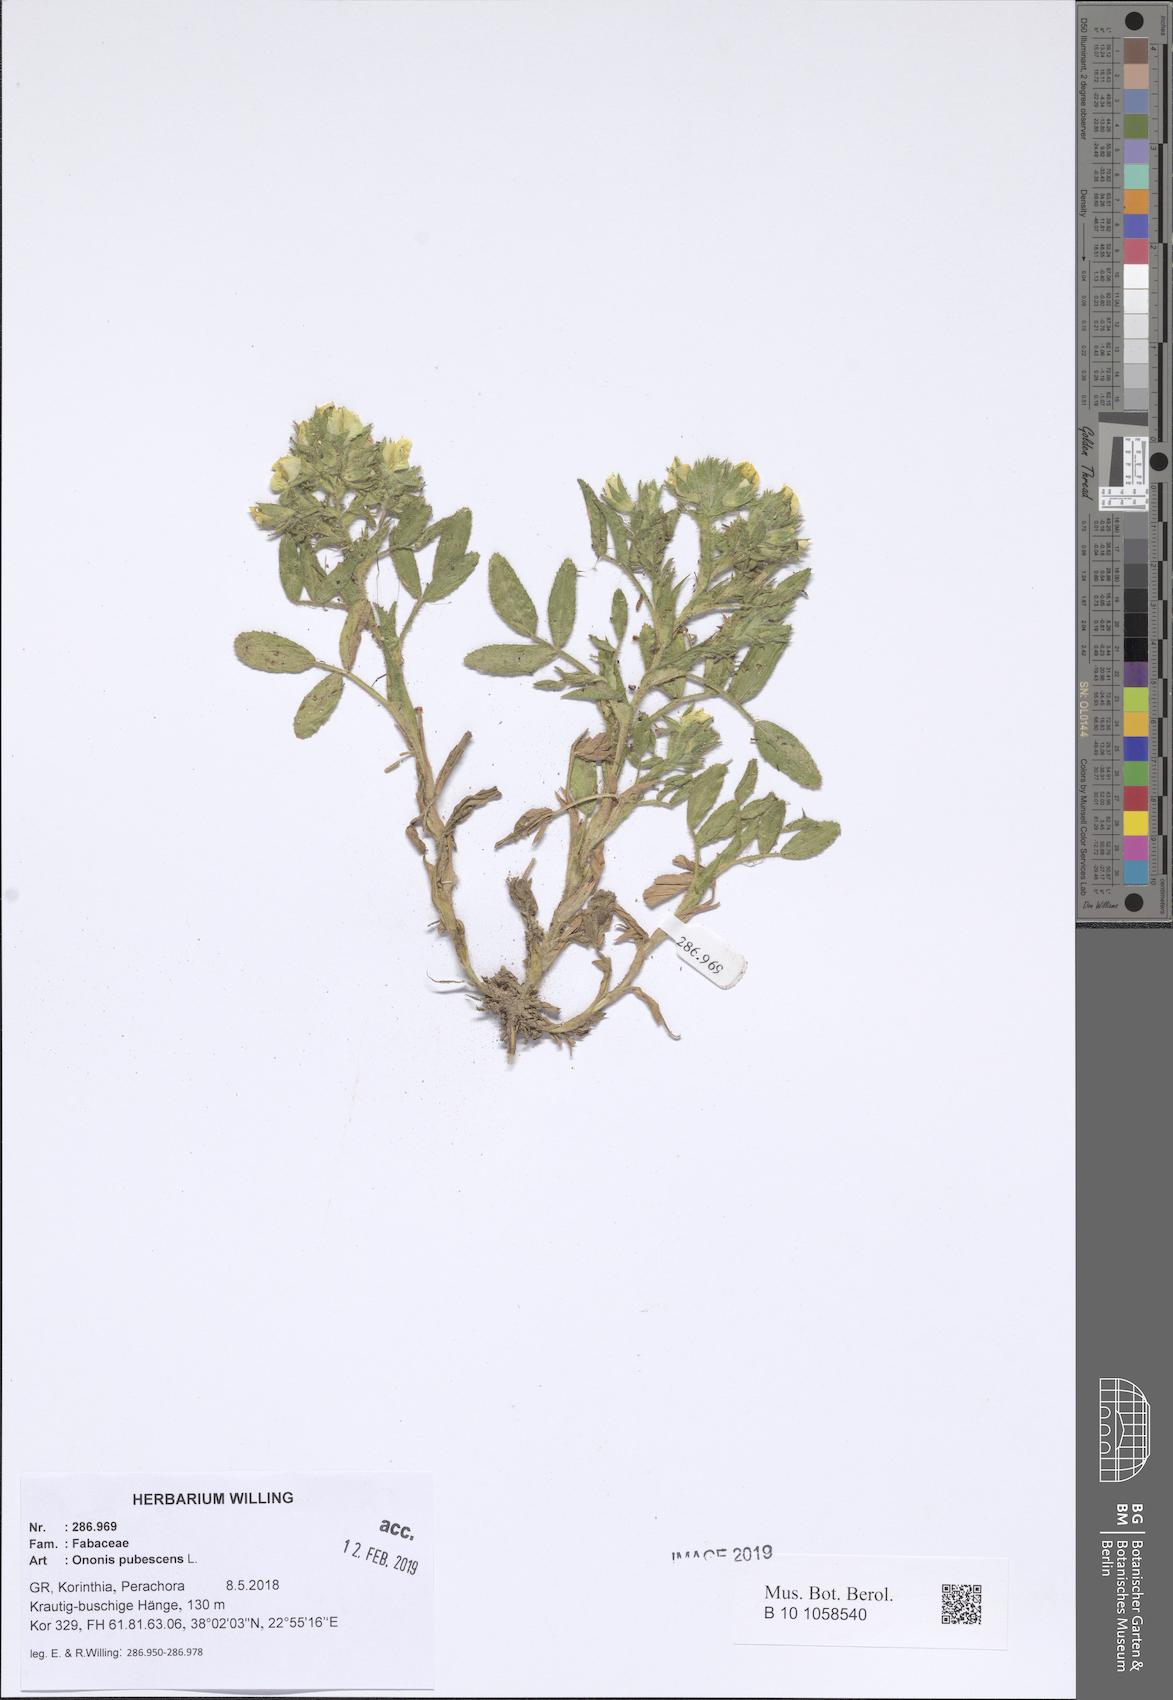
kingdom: Plantae
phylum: Tracheophyta
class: Magnoliopsida
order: Fabales
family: Fabaceae
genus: Ononis
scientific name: Ononis pubescens
